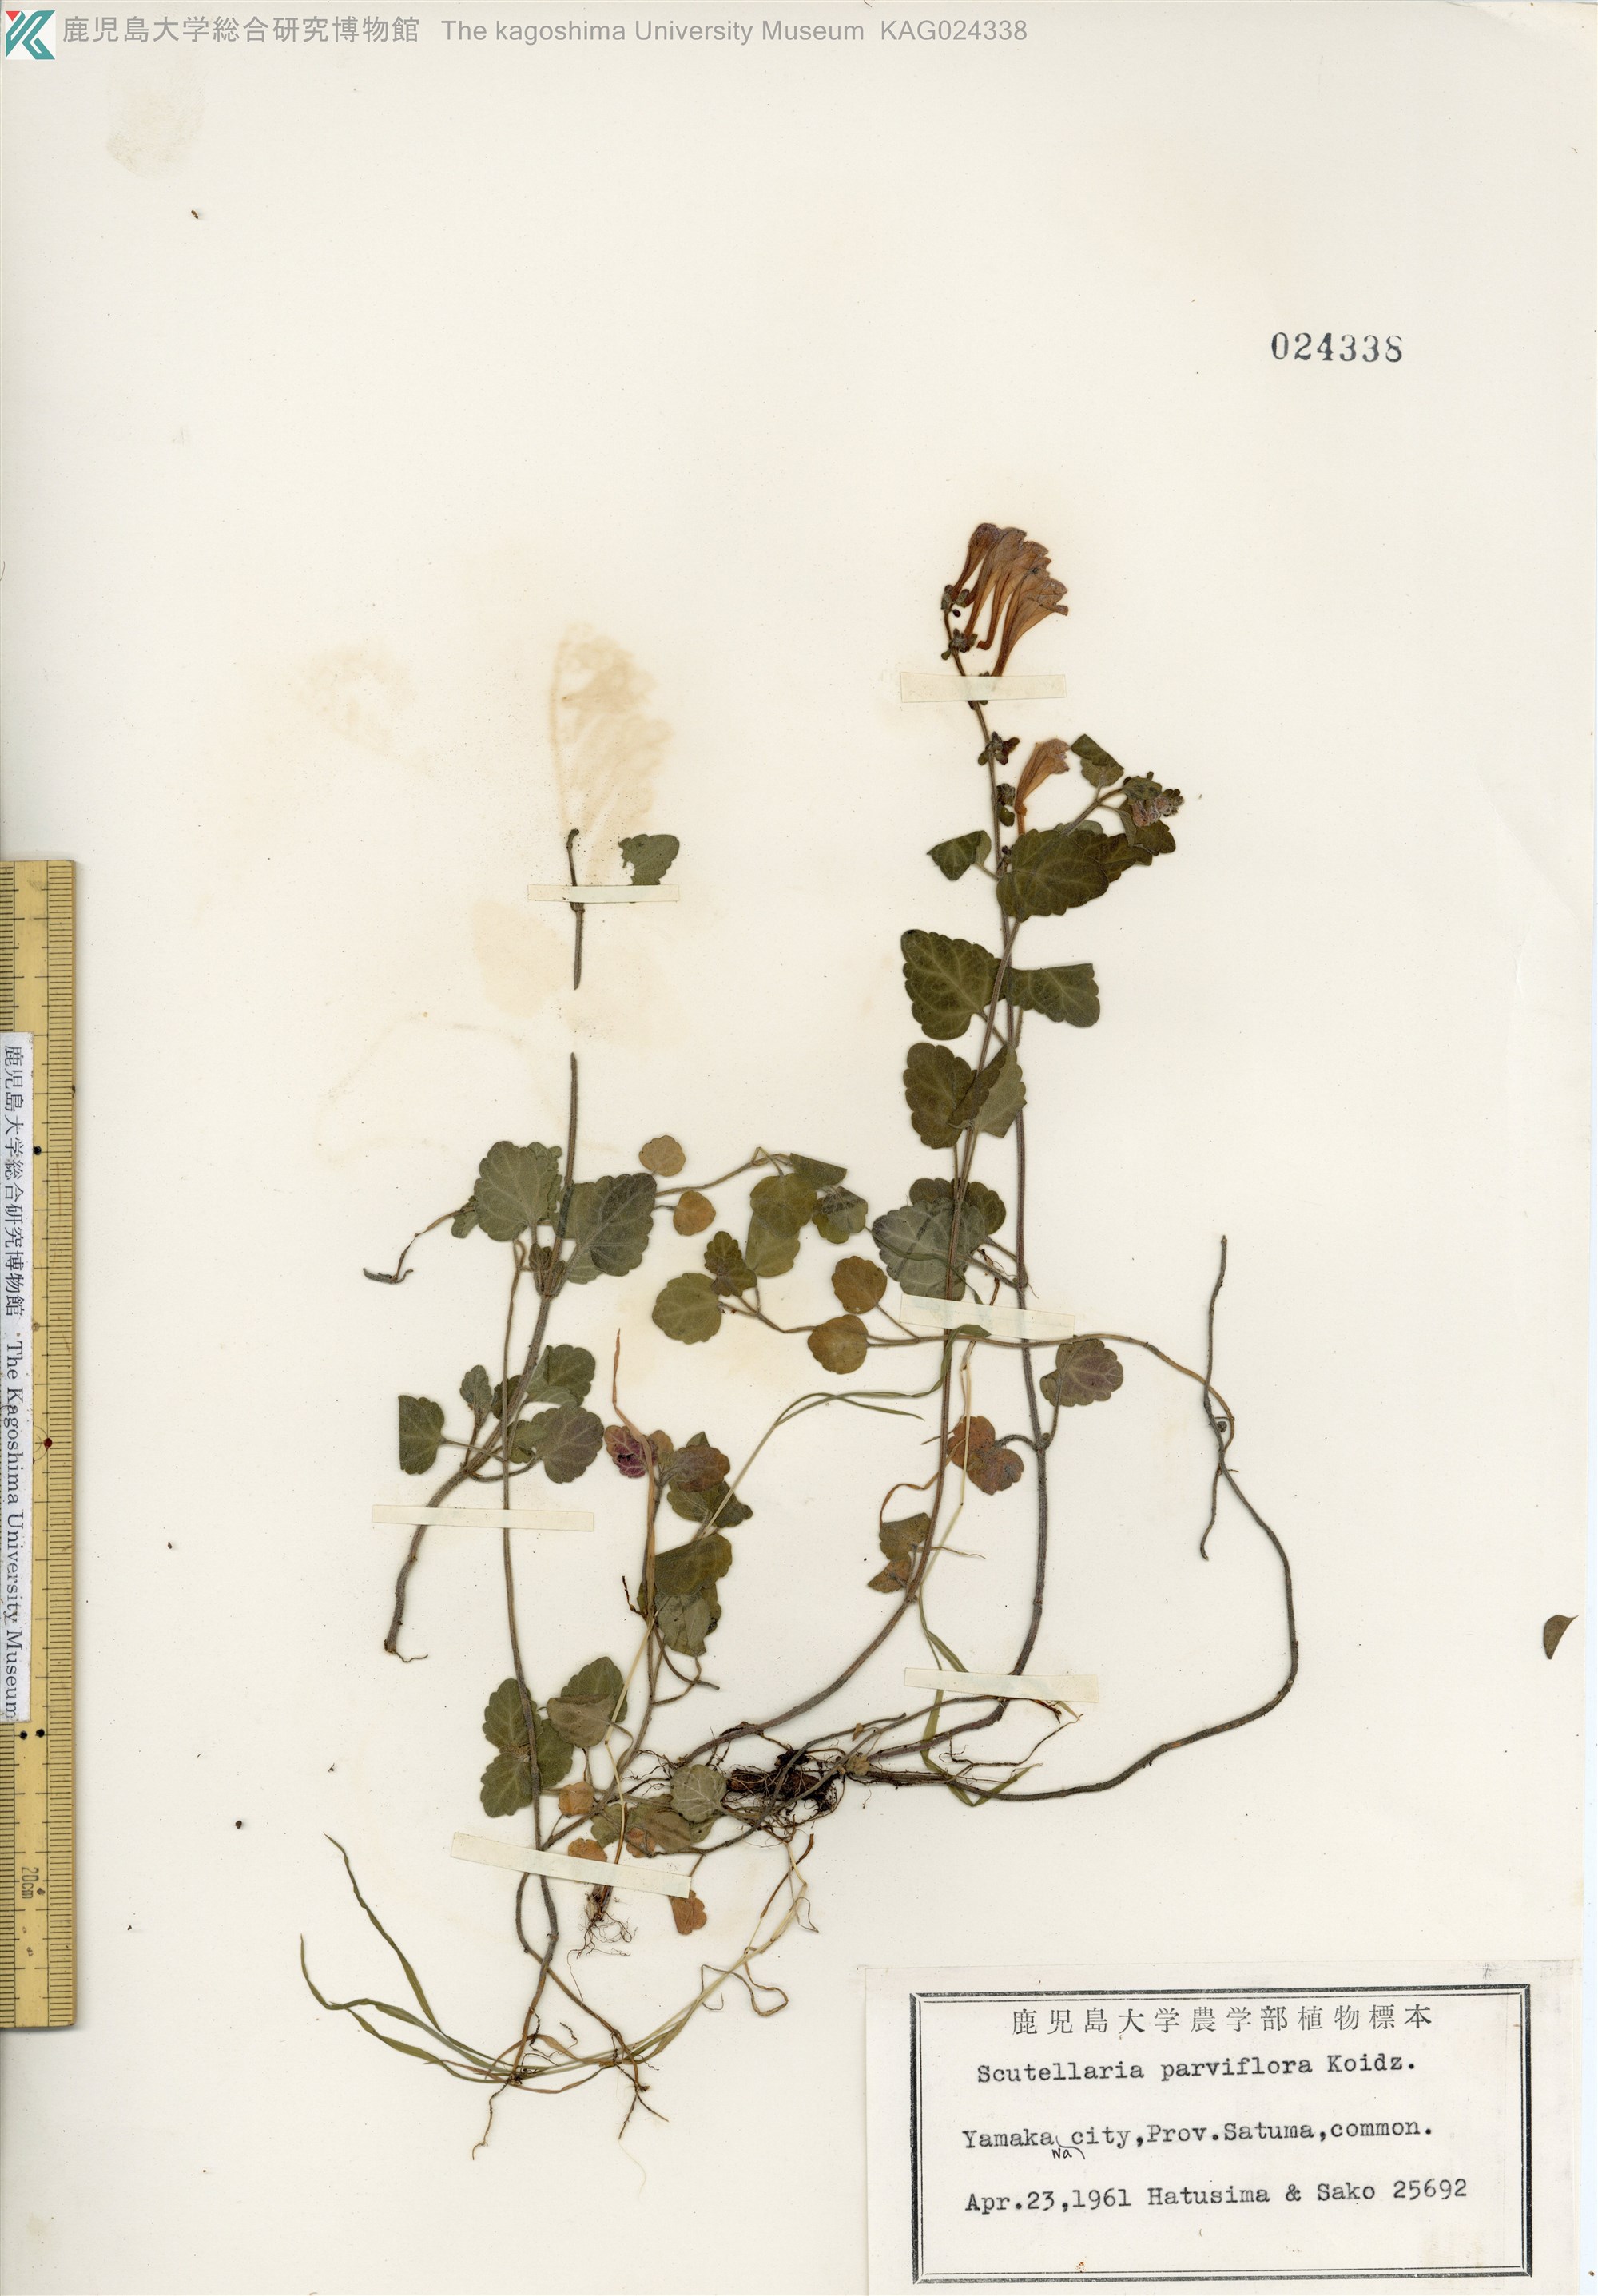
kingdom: Plantae
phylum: Tracheophyta
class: Magnoliopsida
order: Lamiales
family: Lamiaceae
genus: Scutellaria
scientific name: Scutellaria indica
